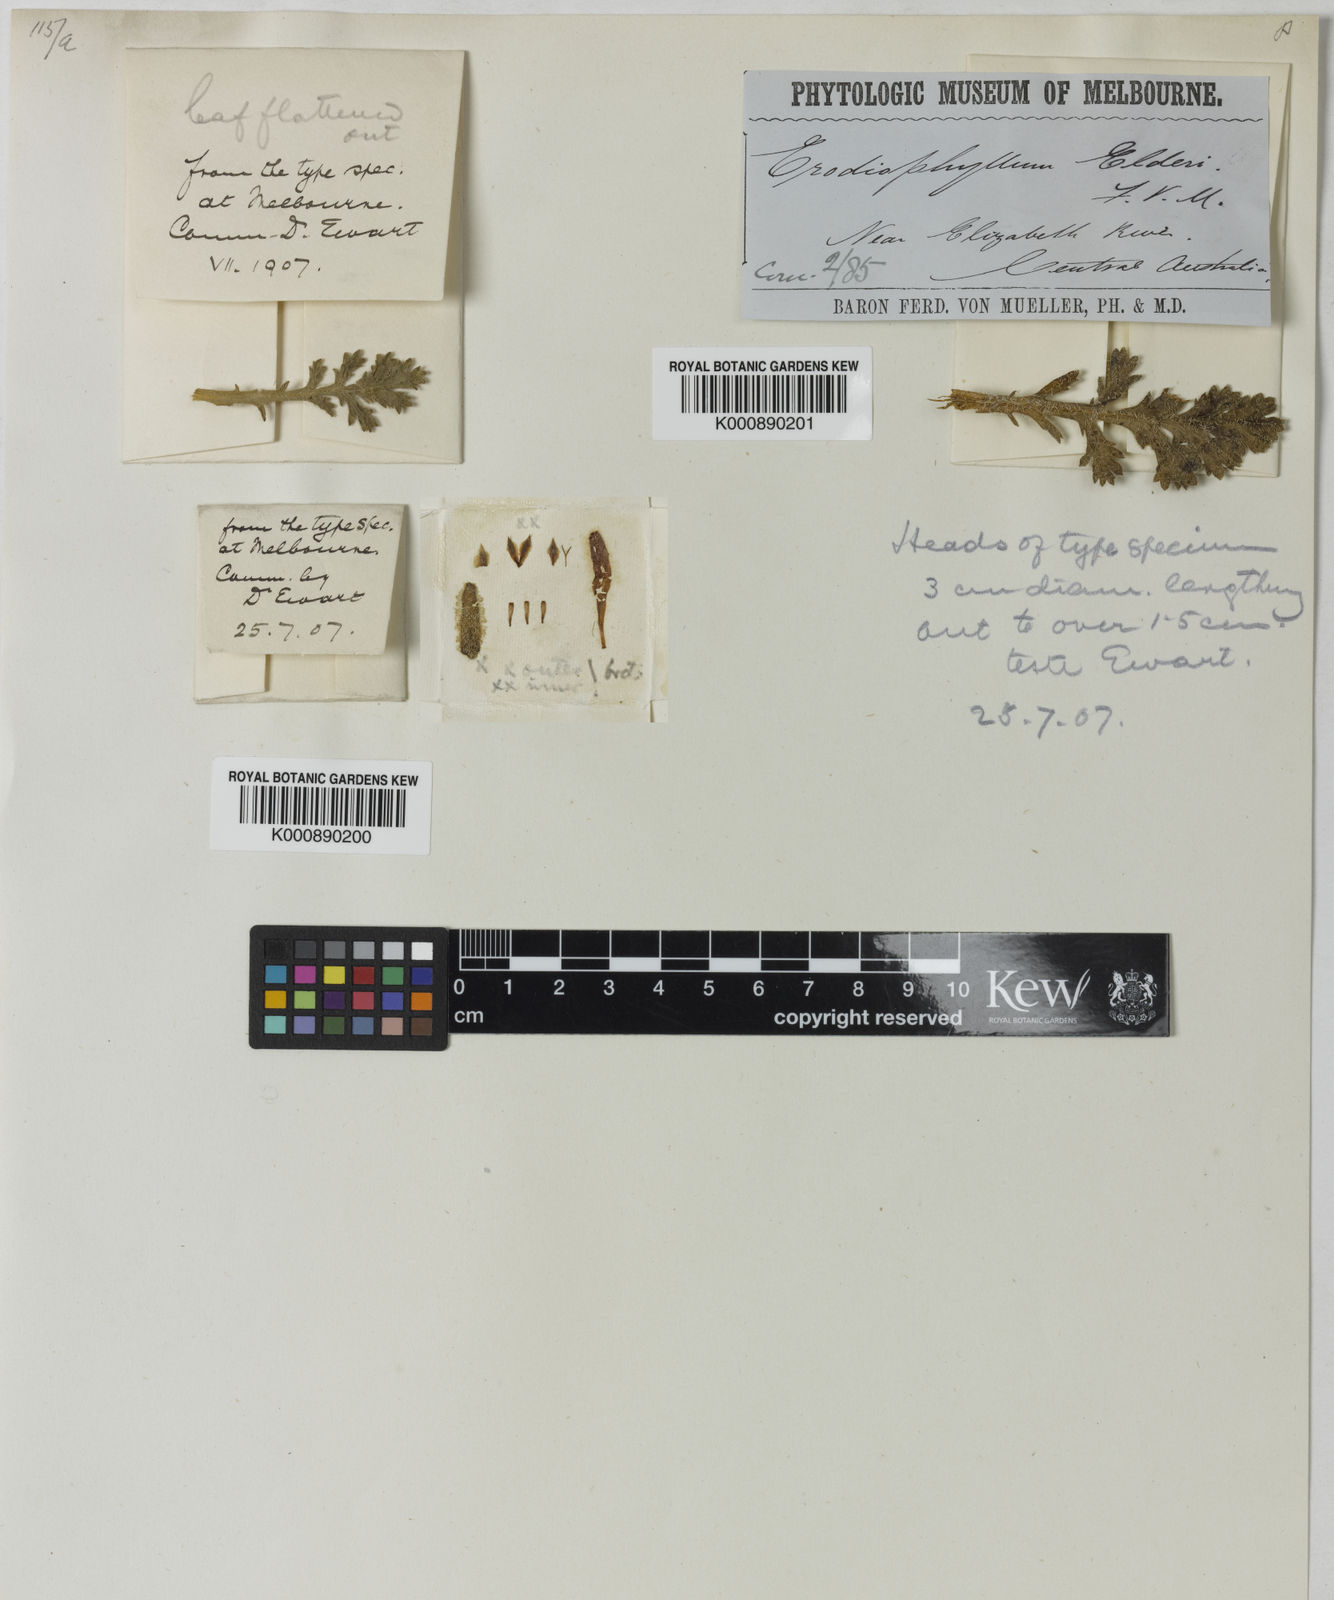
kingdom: Plantae
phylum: Tracheophyta
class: Magnoliopsida
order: Asterales
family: Asteraceae
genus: Erodiophyllum
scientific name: Erodiophyllum
